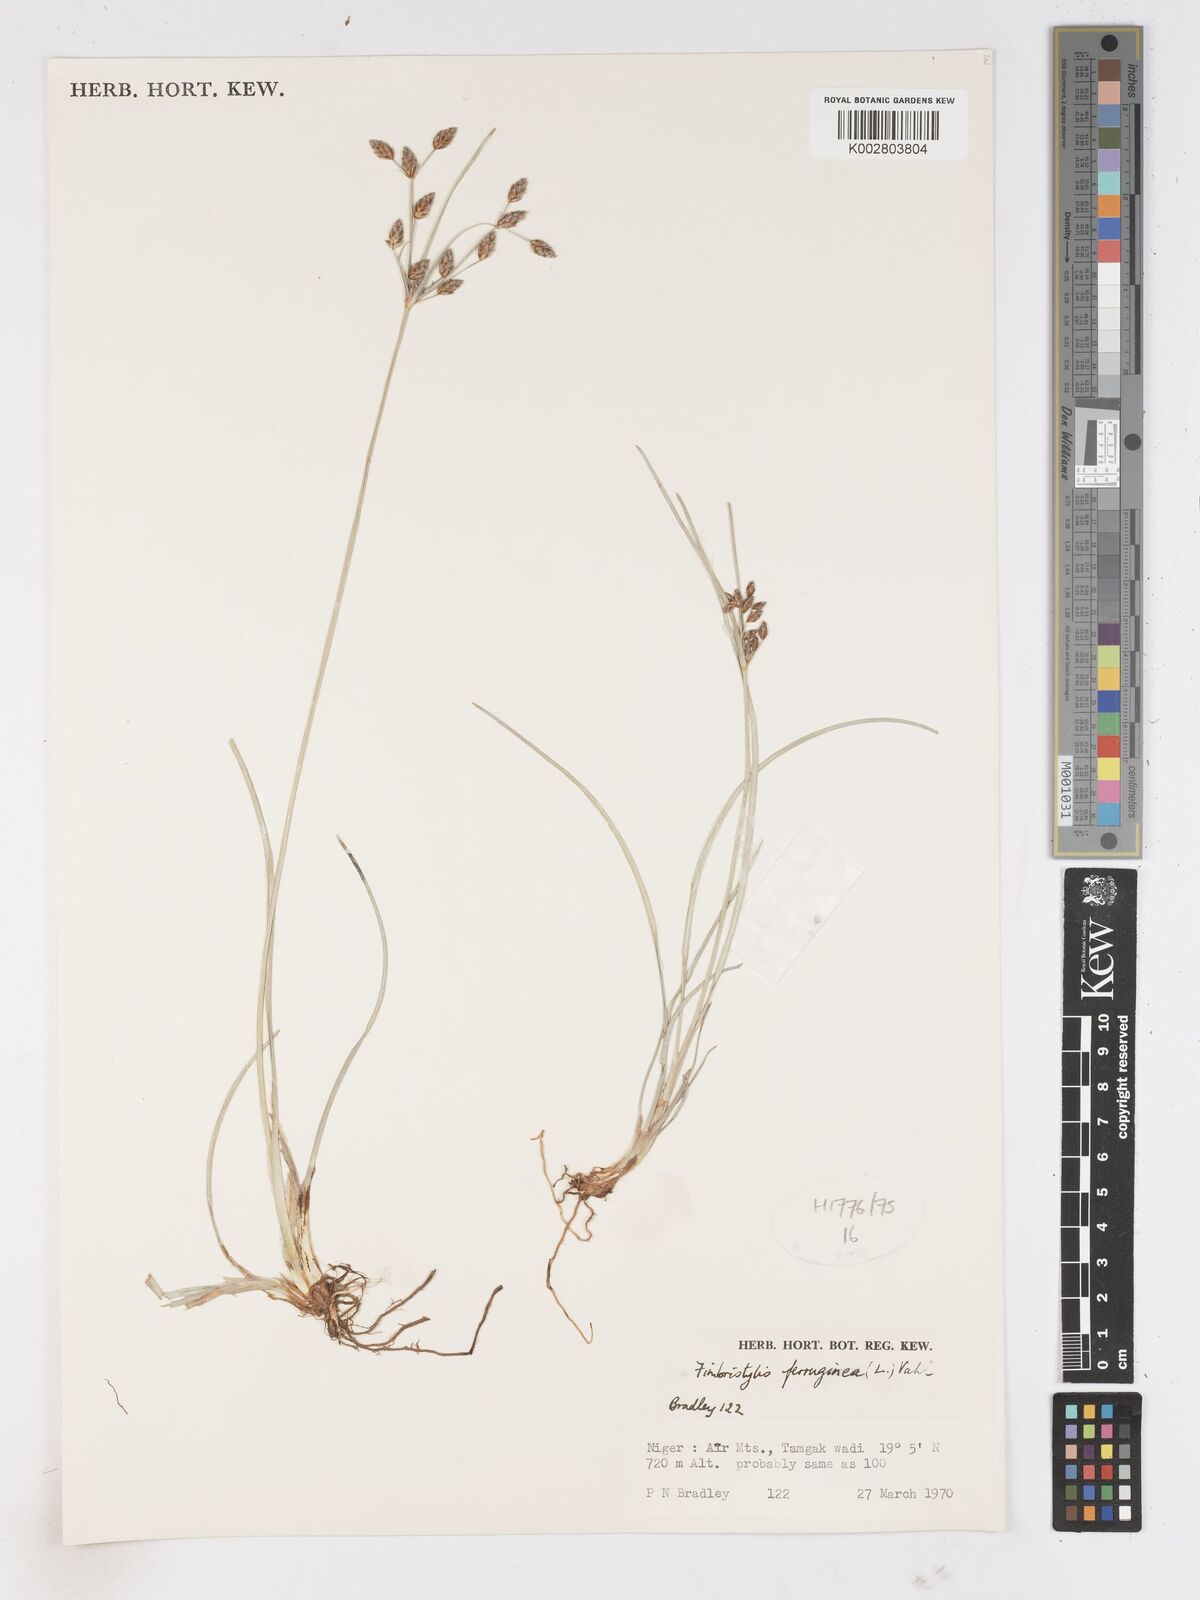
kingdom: Plantae
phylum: Tracheophyta
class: Liliopsida
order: Poales
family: Cyperaceae
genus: Fimbristylis
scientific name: Fimbristylis ferruginea
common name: West indian fimbry
